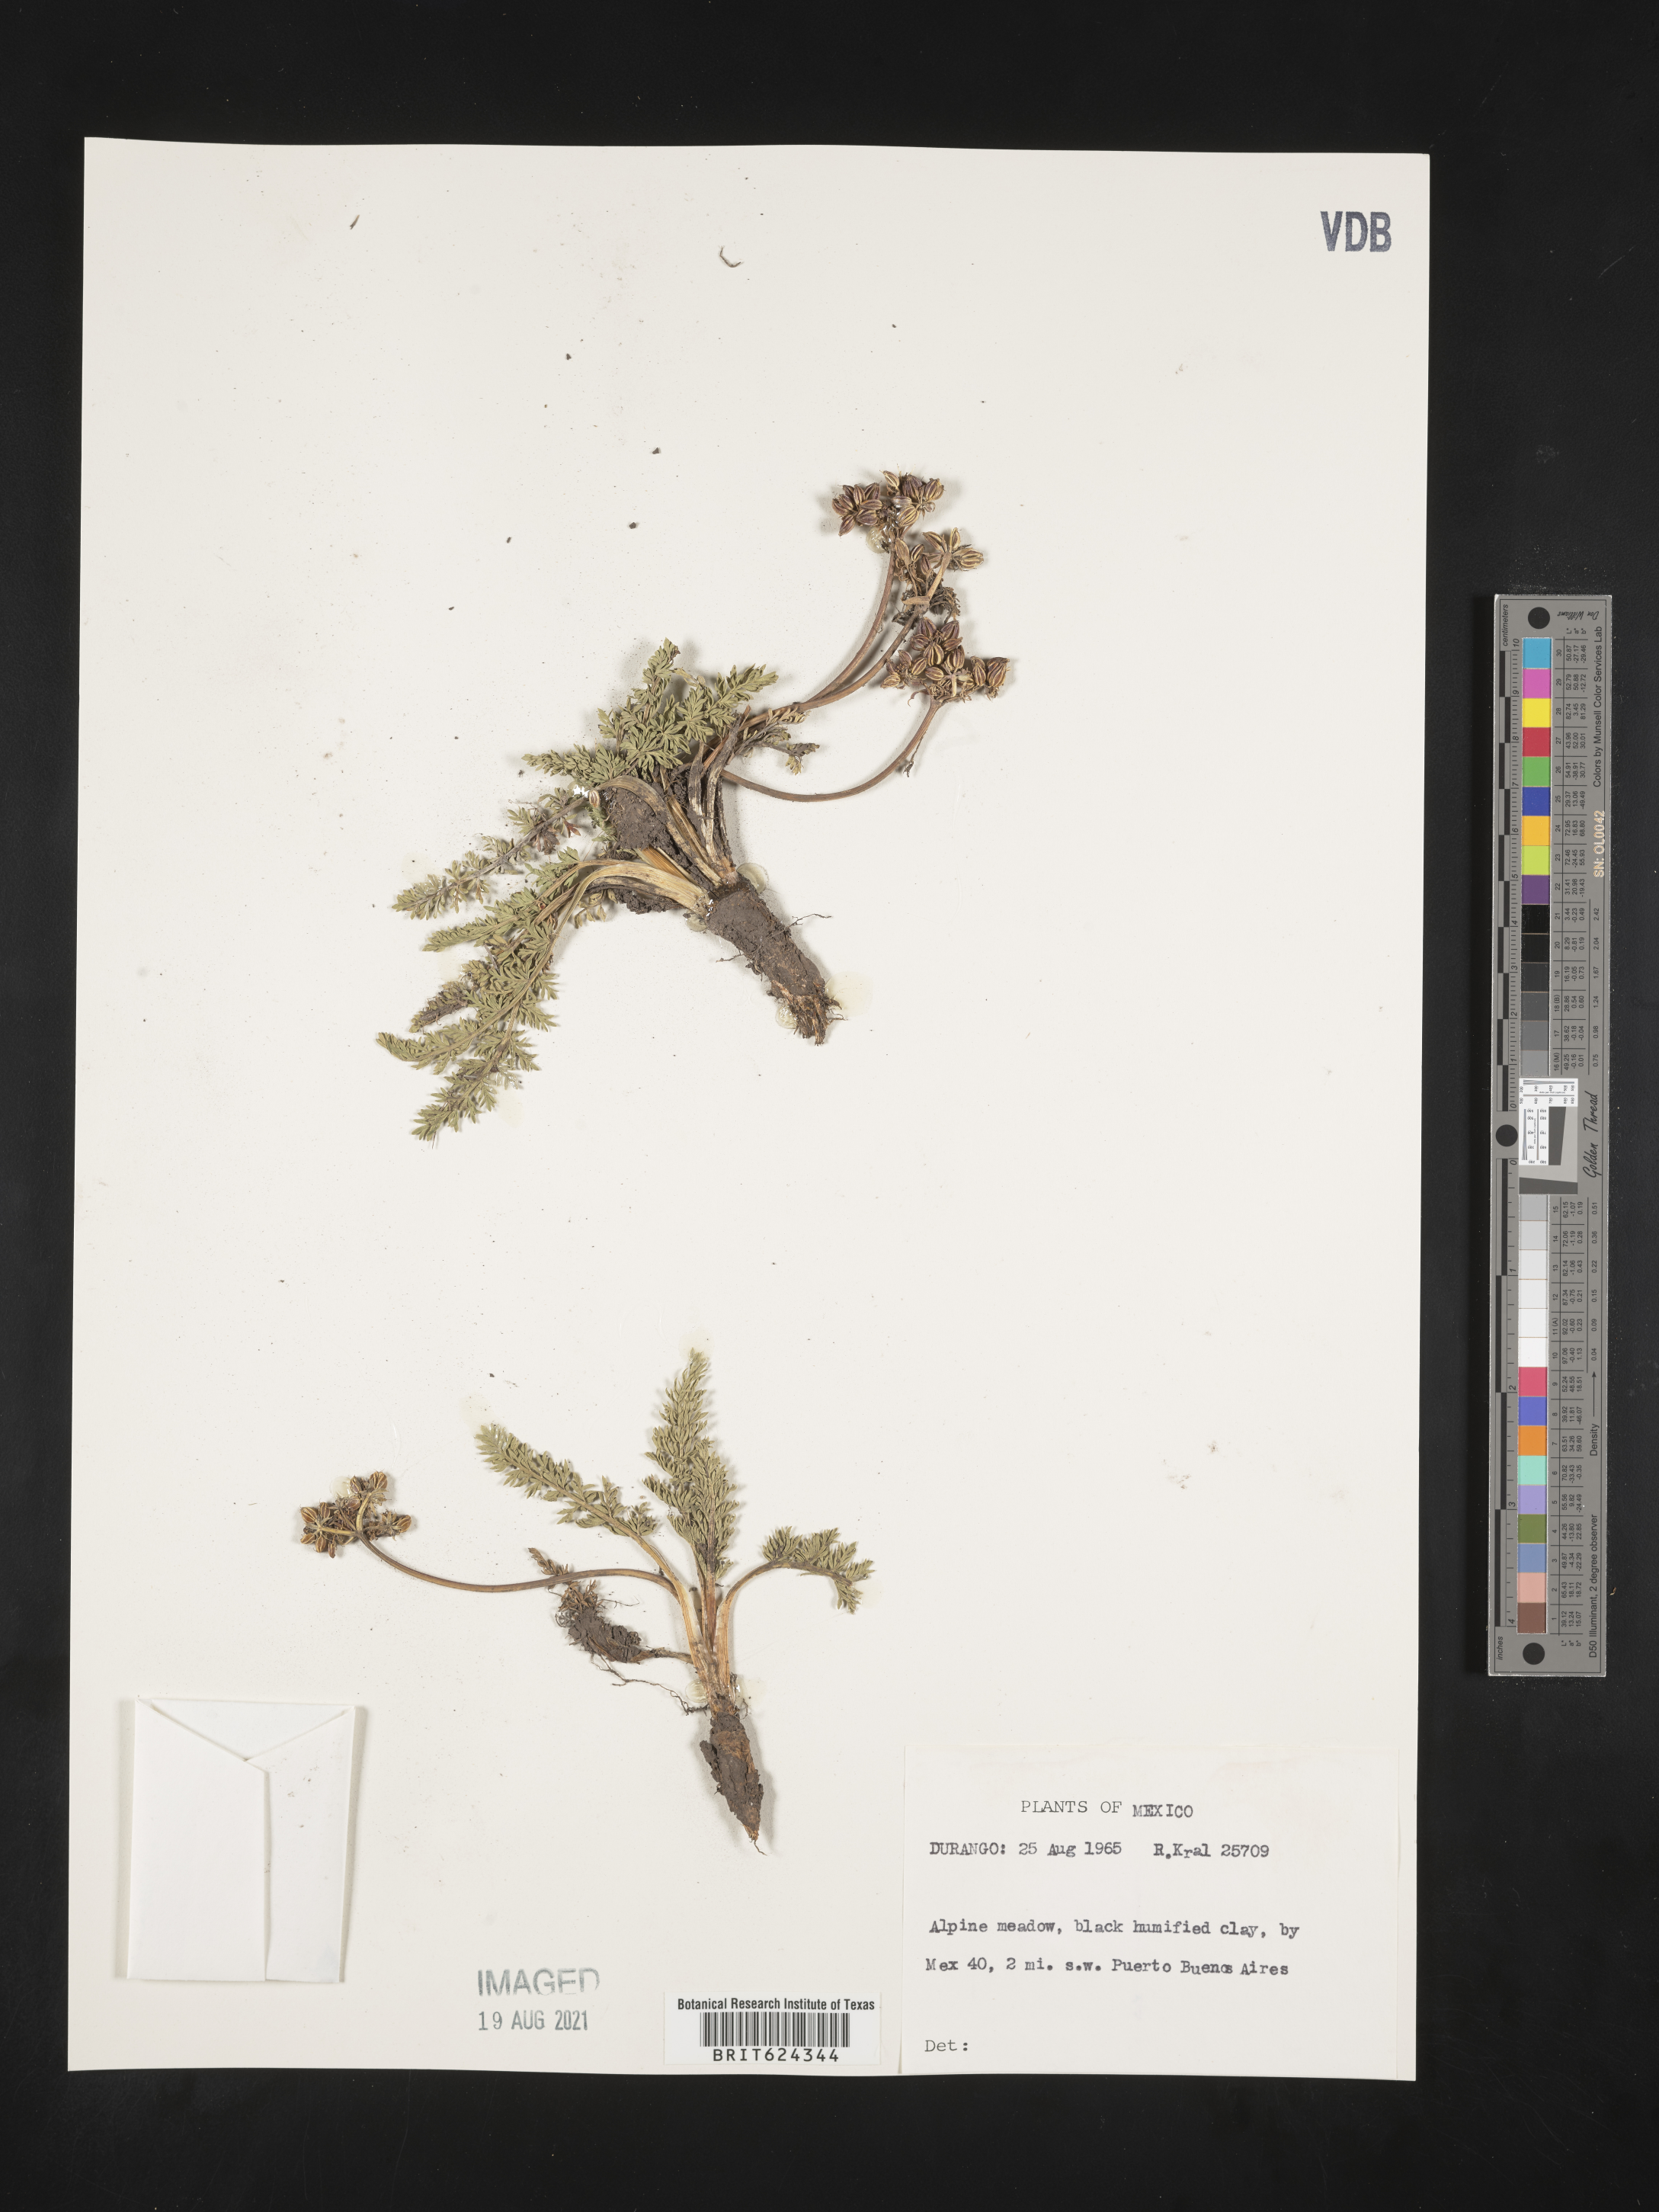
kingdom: Plantae
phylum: Tracheophyta
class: Magnoliopsida
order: Apiales
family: Apiaceae
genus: Rhodosciadium
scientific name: Rhodosciadium
